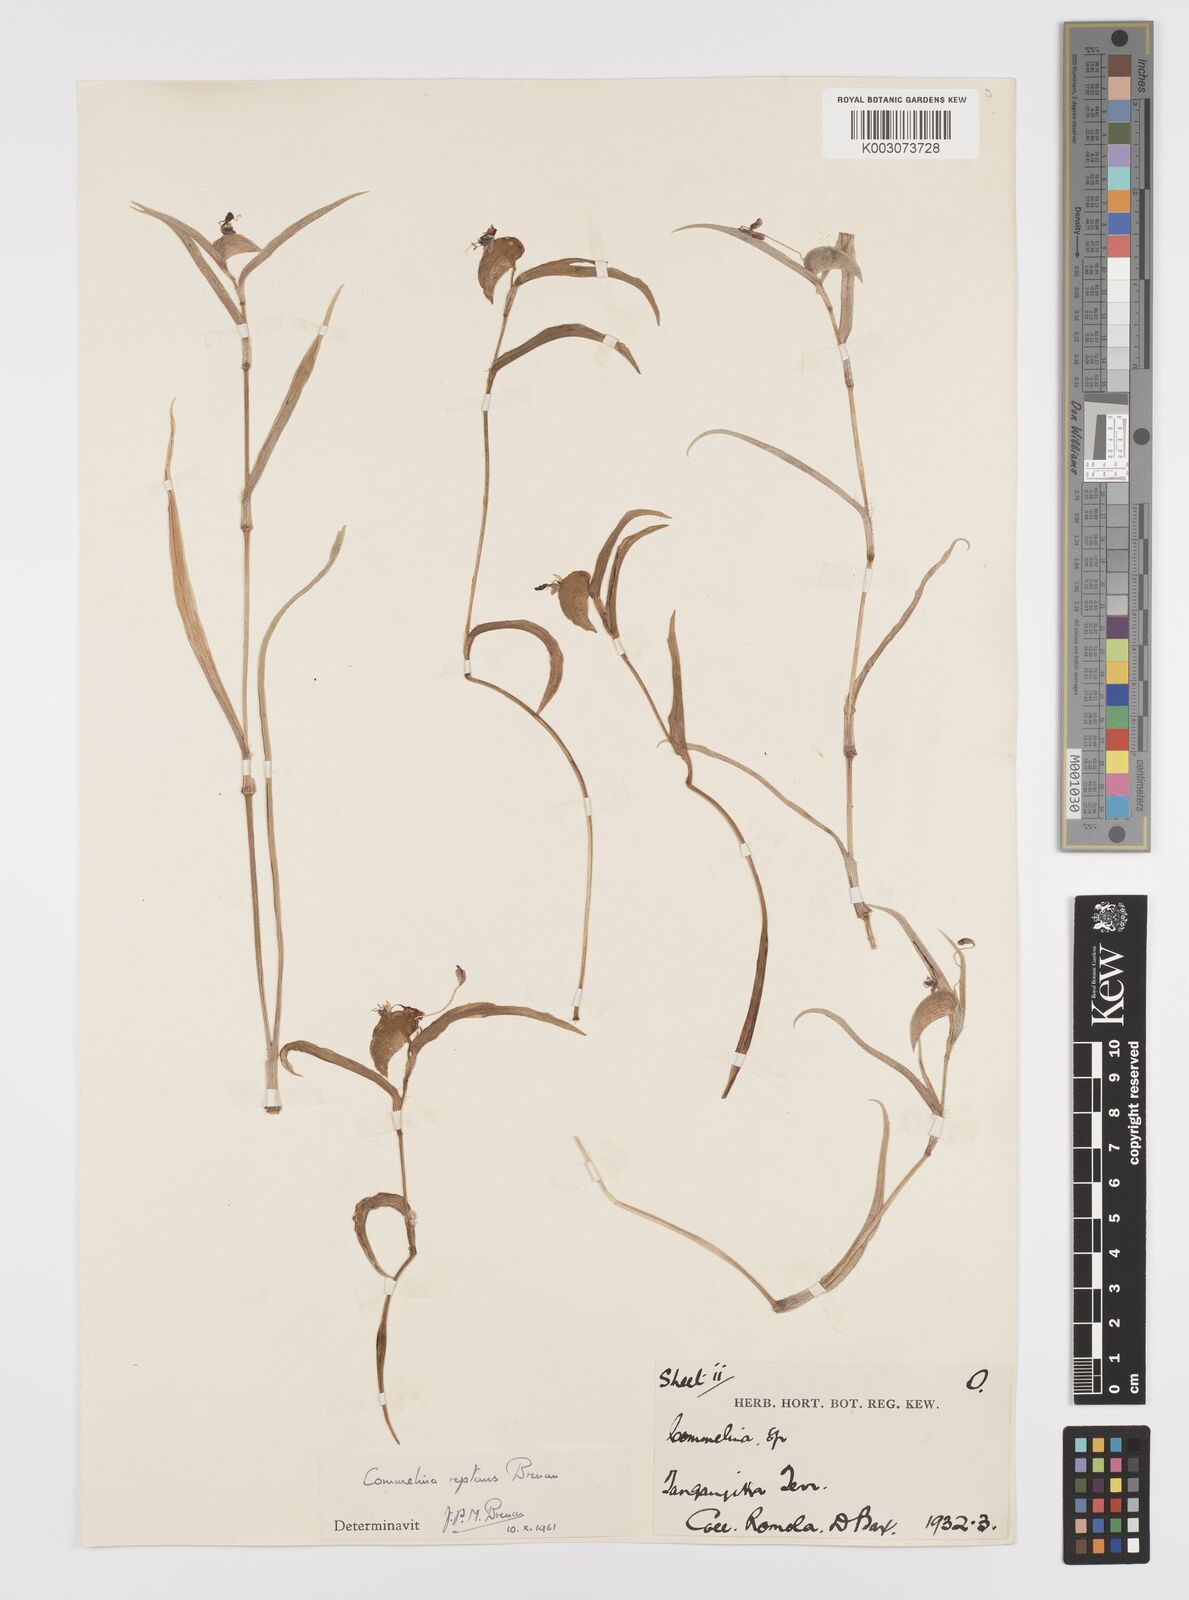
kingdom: Plantae
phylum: Tracheophyta
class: Liliopsida
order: Commelinales
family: Commelinaceae
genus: Commelina
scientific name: Commelina reptans
